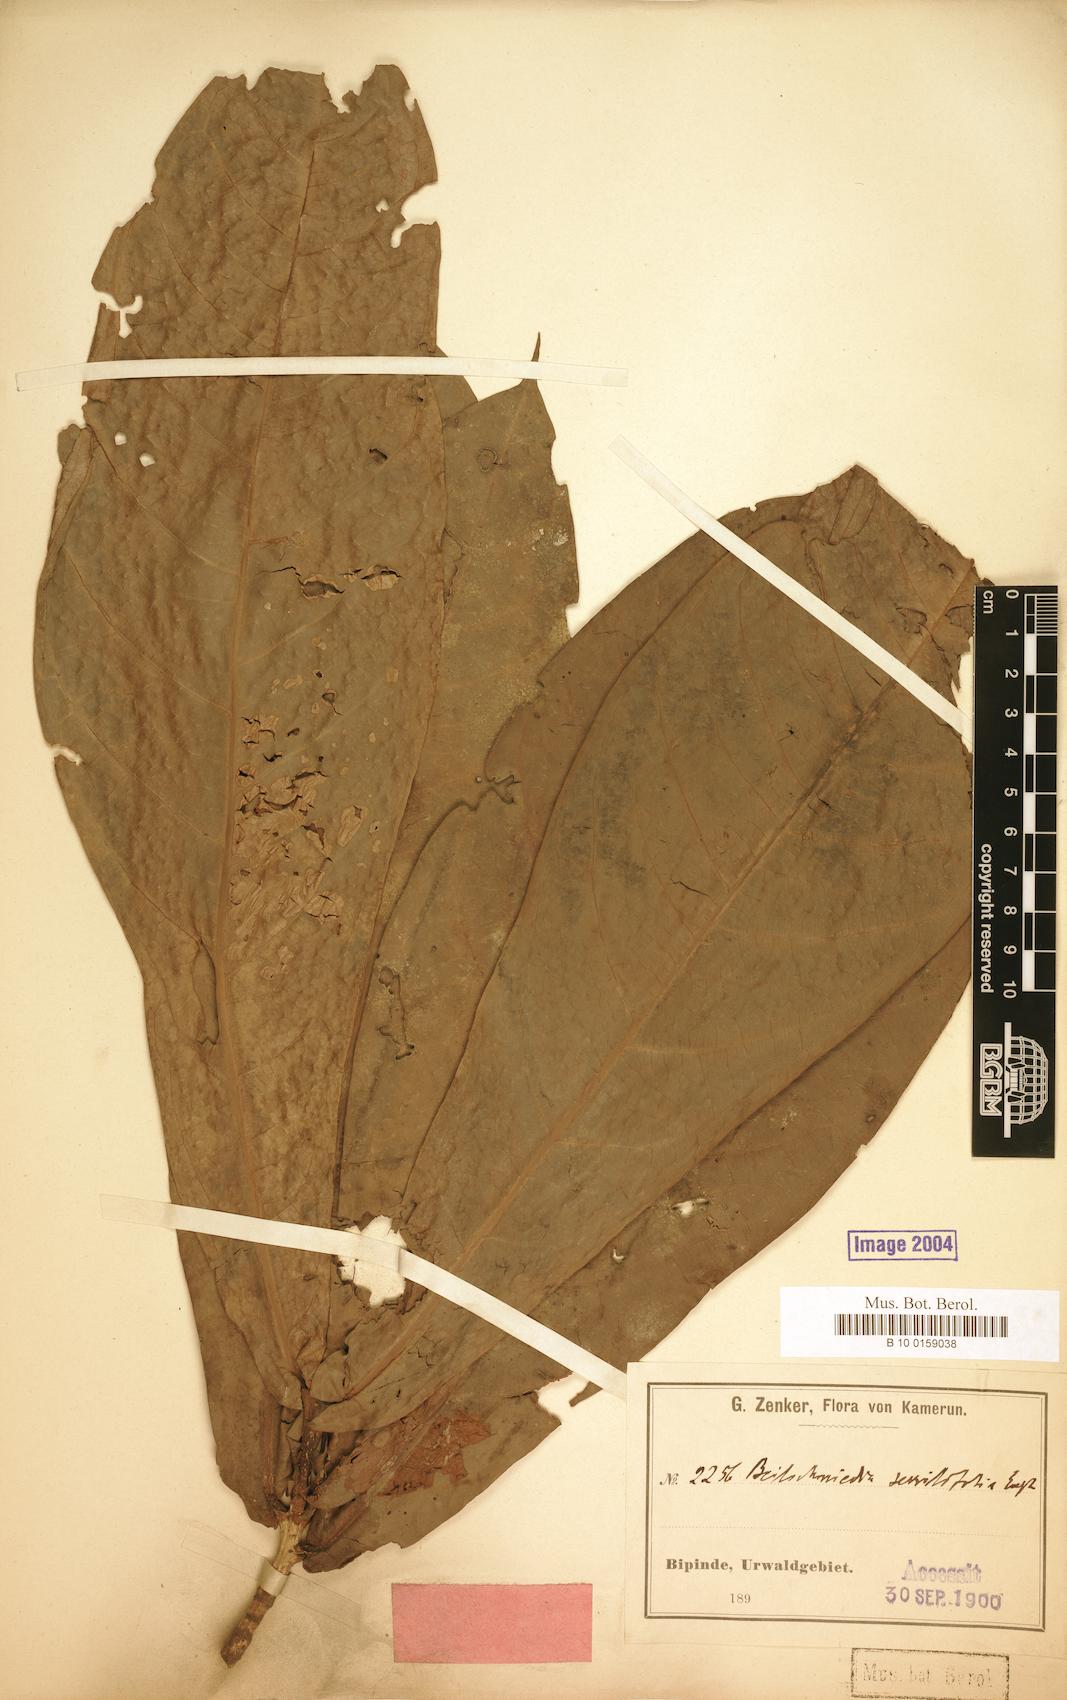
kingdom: Plantae
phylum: Tracheophyta
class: Magnoliopsida
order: Laurales
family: Lauraceae
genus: Beilschmiedia
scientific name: Beilschmiedia sessilifolia
